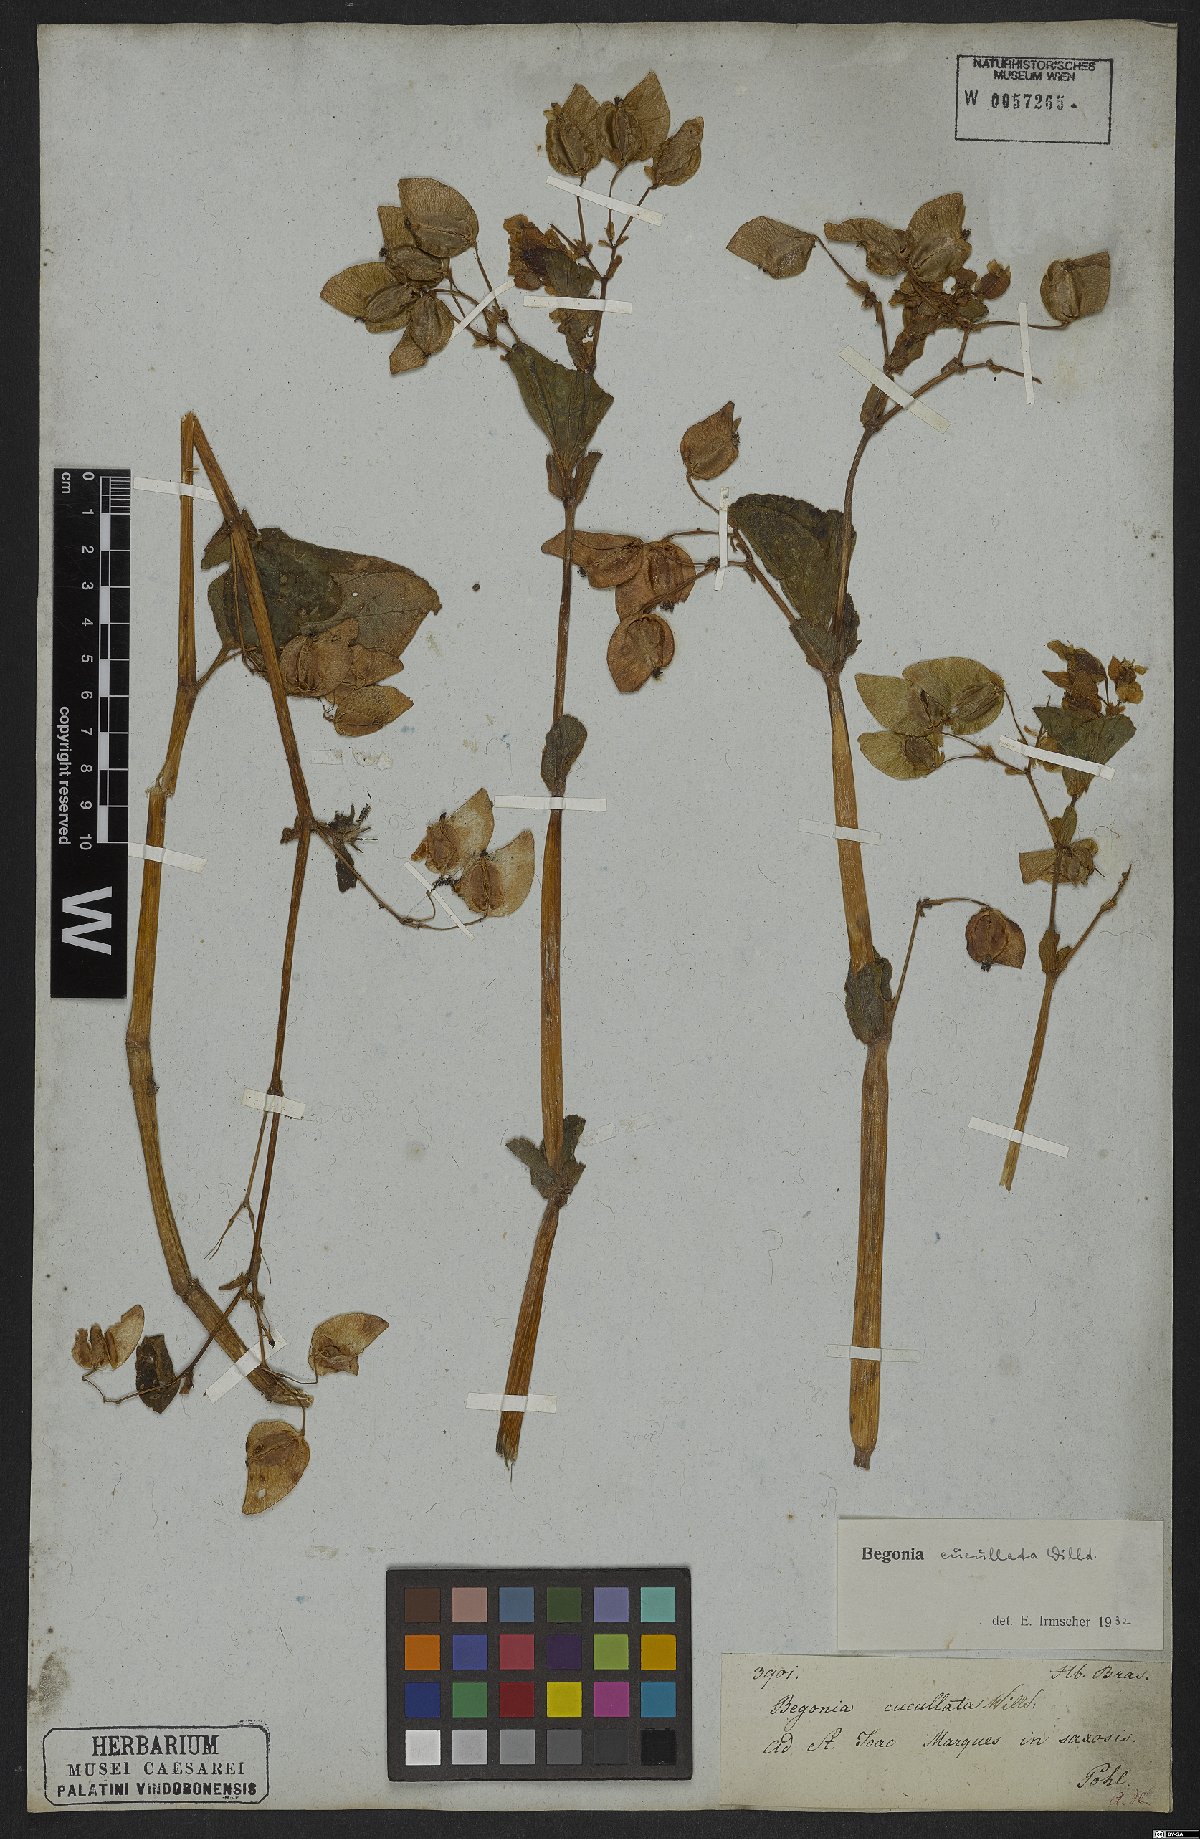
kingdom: Plantae
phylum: Tracheophyta
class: Magnoliopsida
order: Cucurbitales
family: Begoniaceae
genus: Begonia
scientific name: Begonia cucullata
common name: Clubbed begonia
